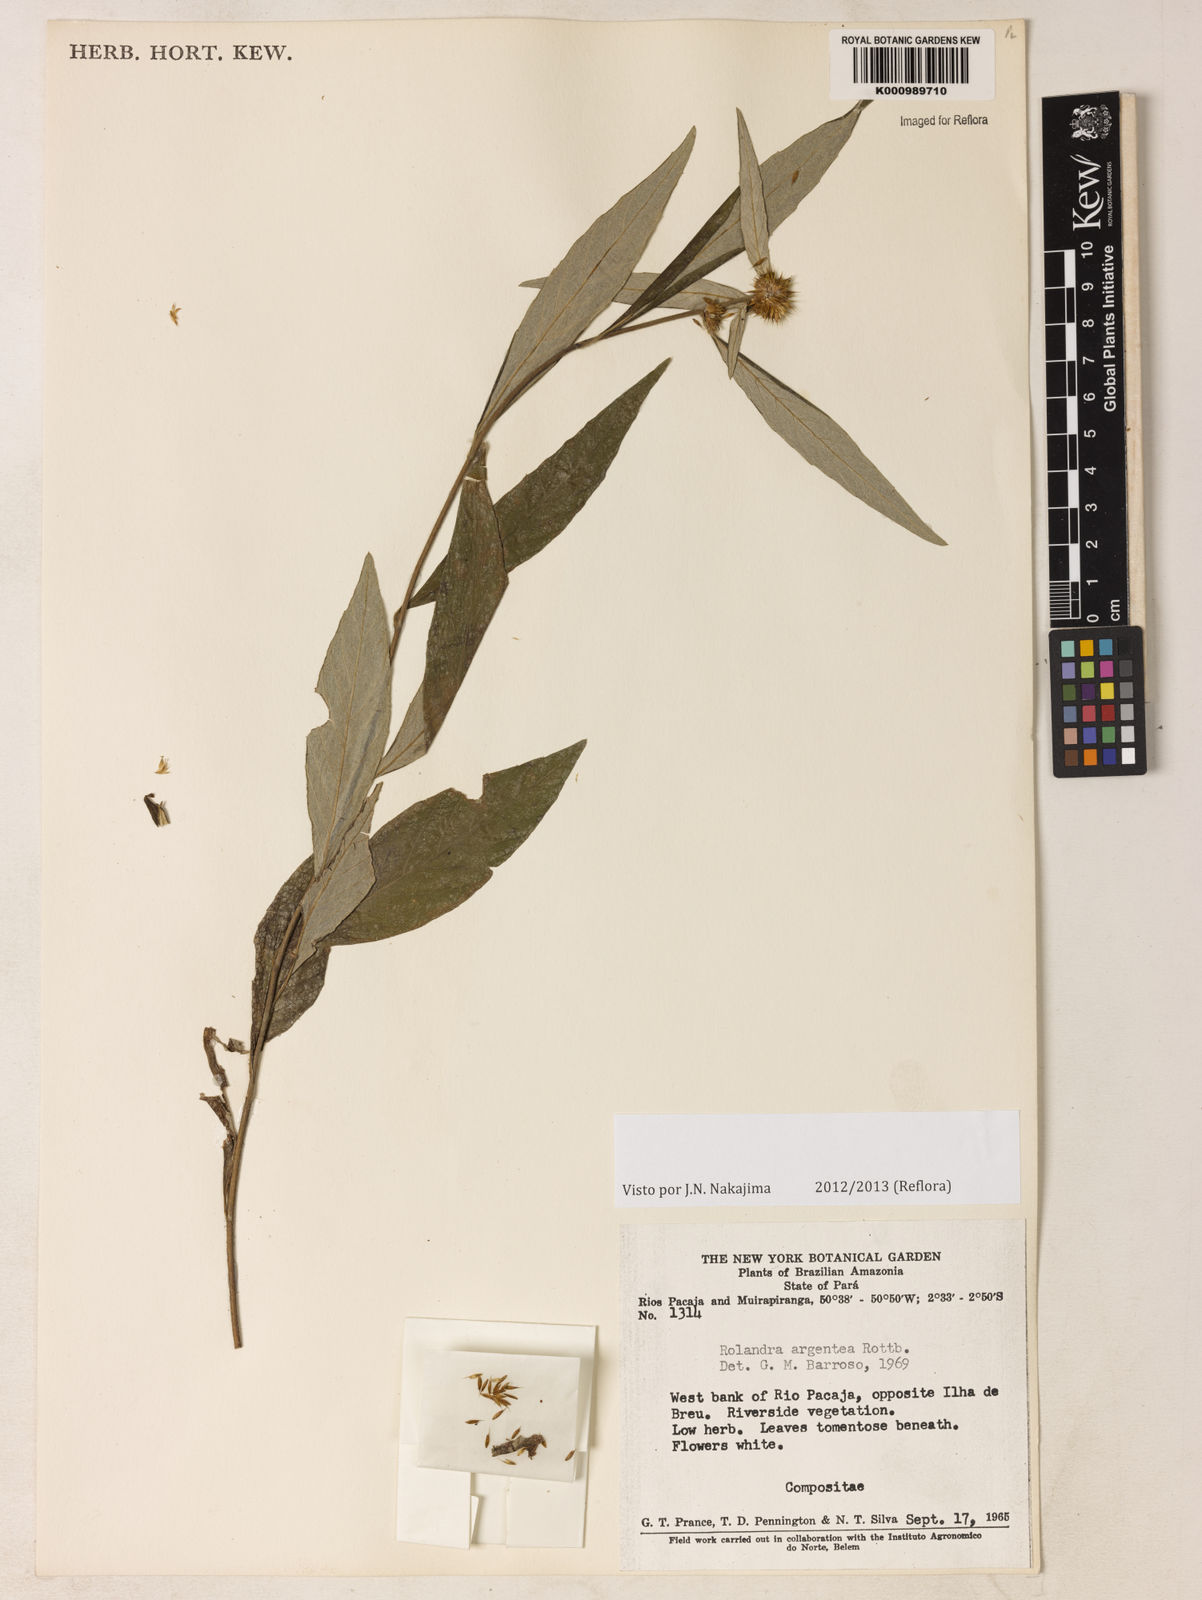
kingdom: Plantae
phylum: Tracheophyta
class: Magnoliopsida
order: Asterales
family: Asteraceae
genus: Rolandra
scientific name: Rolandra fruticosa
